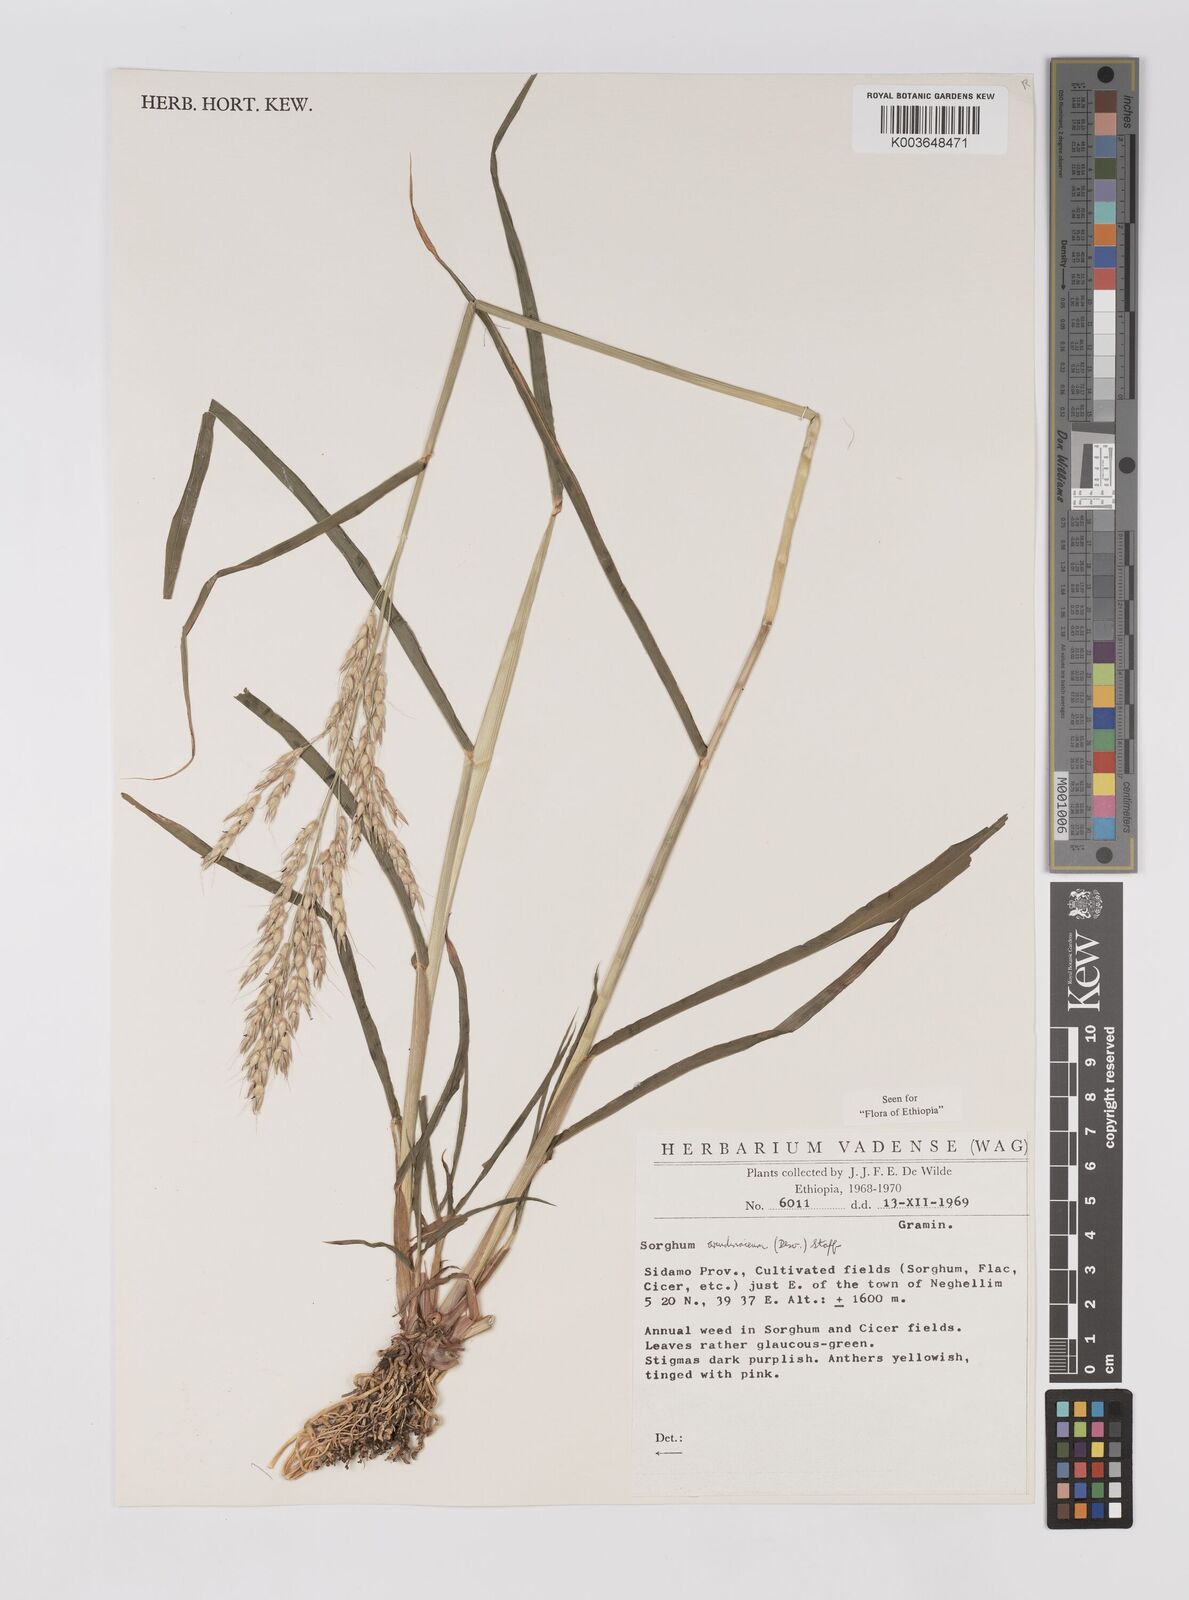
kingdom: Plantae
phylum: Tracheophyta
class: Liliopsida
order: Poales
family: Poaceae
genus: Sorghum
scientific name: Sorghum arundinaceum
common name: Sorghum
